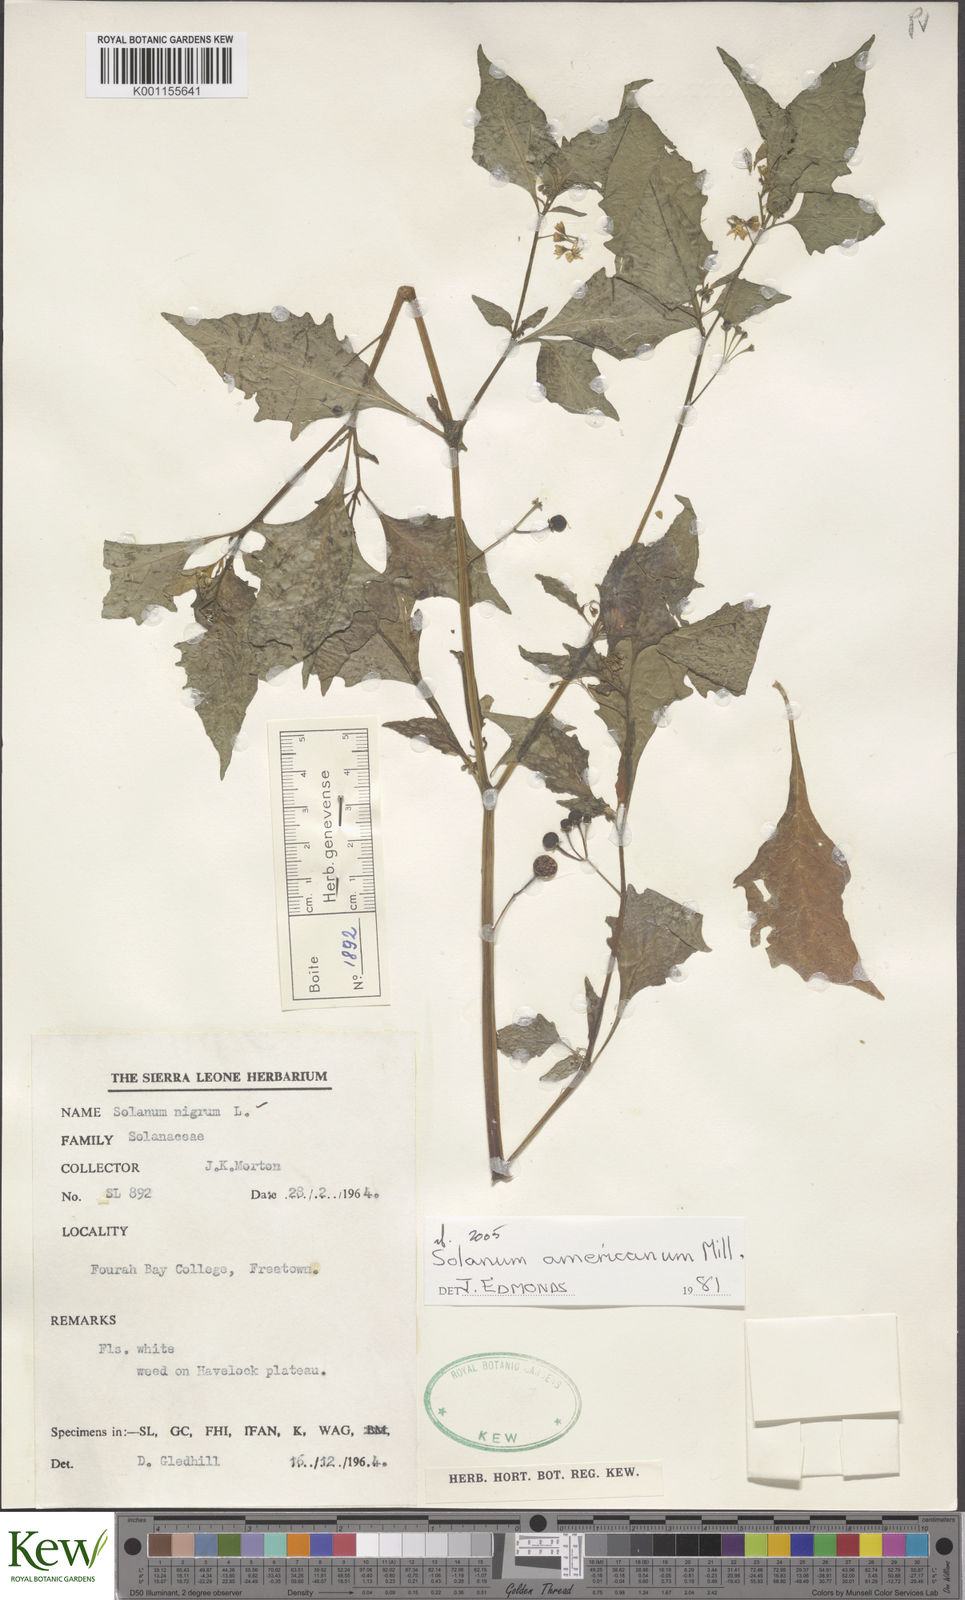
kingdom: Plantae
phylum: Tracheophyta
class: Magnoliopsida
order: Solanales
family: Solanaceae
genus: Solanum
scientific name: Solanum americanum
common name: American black nightshade
